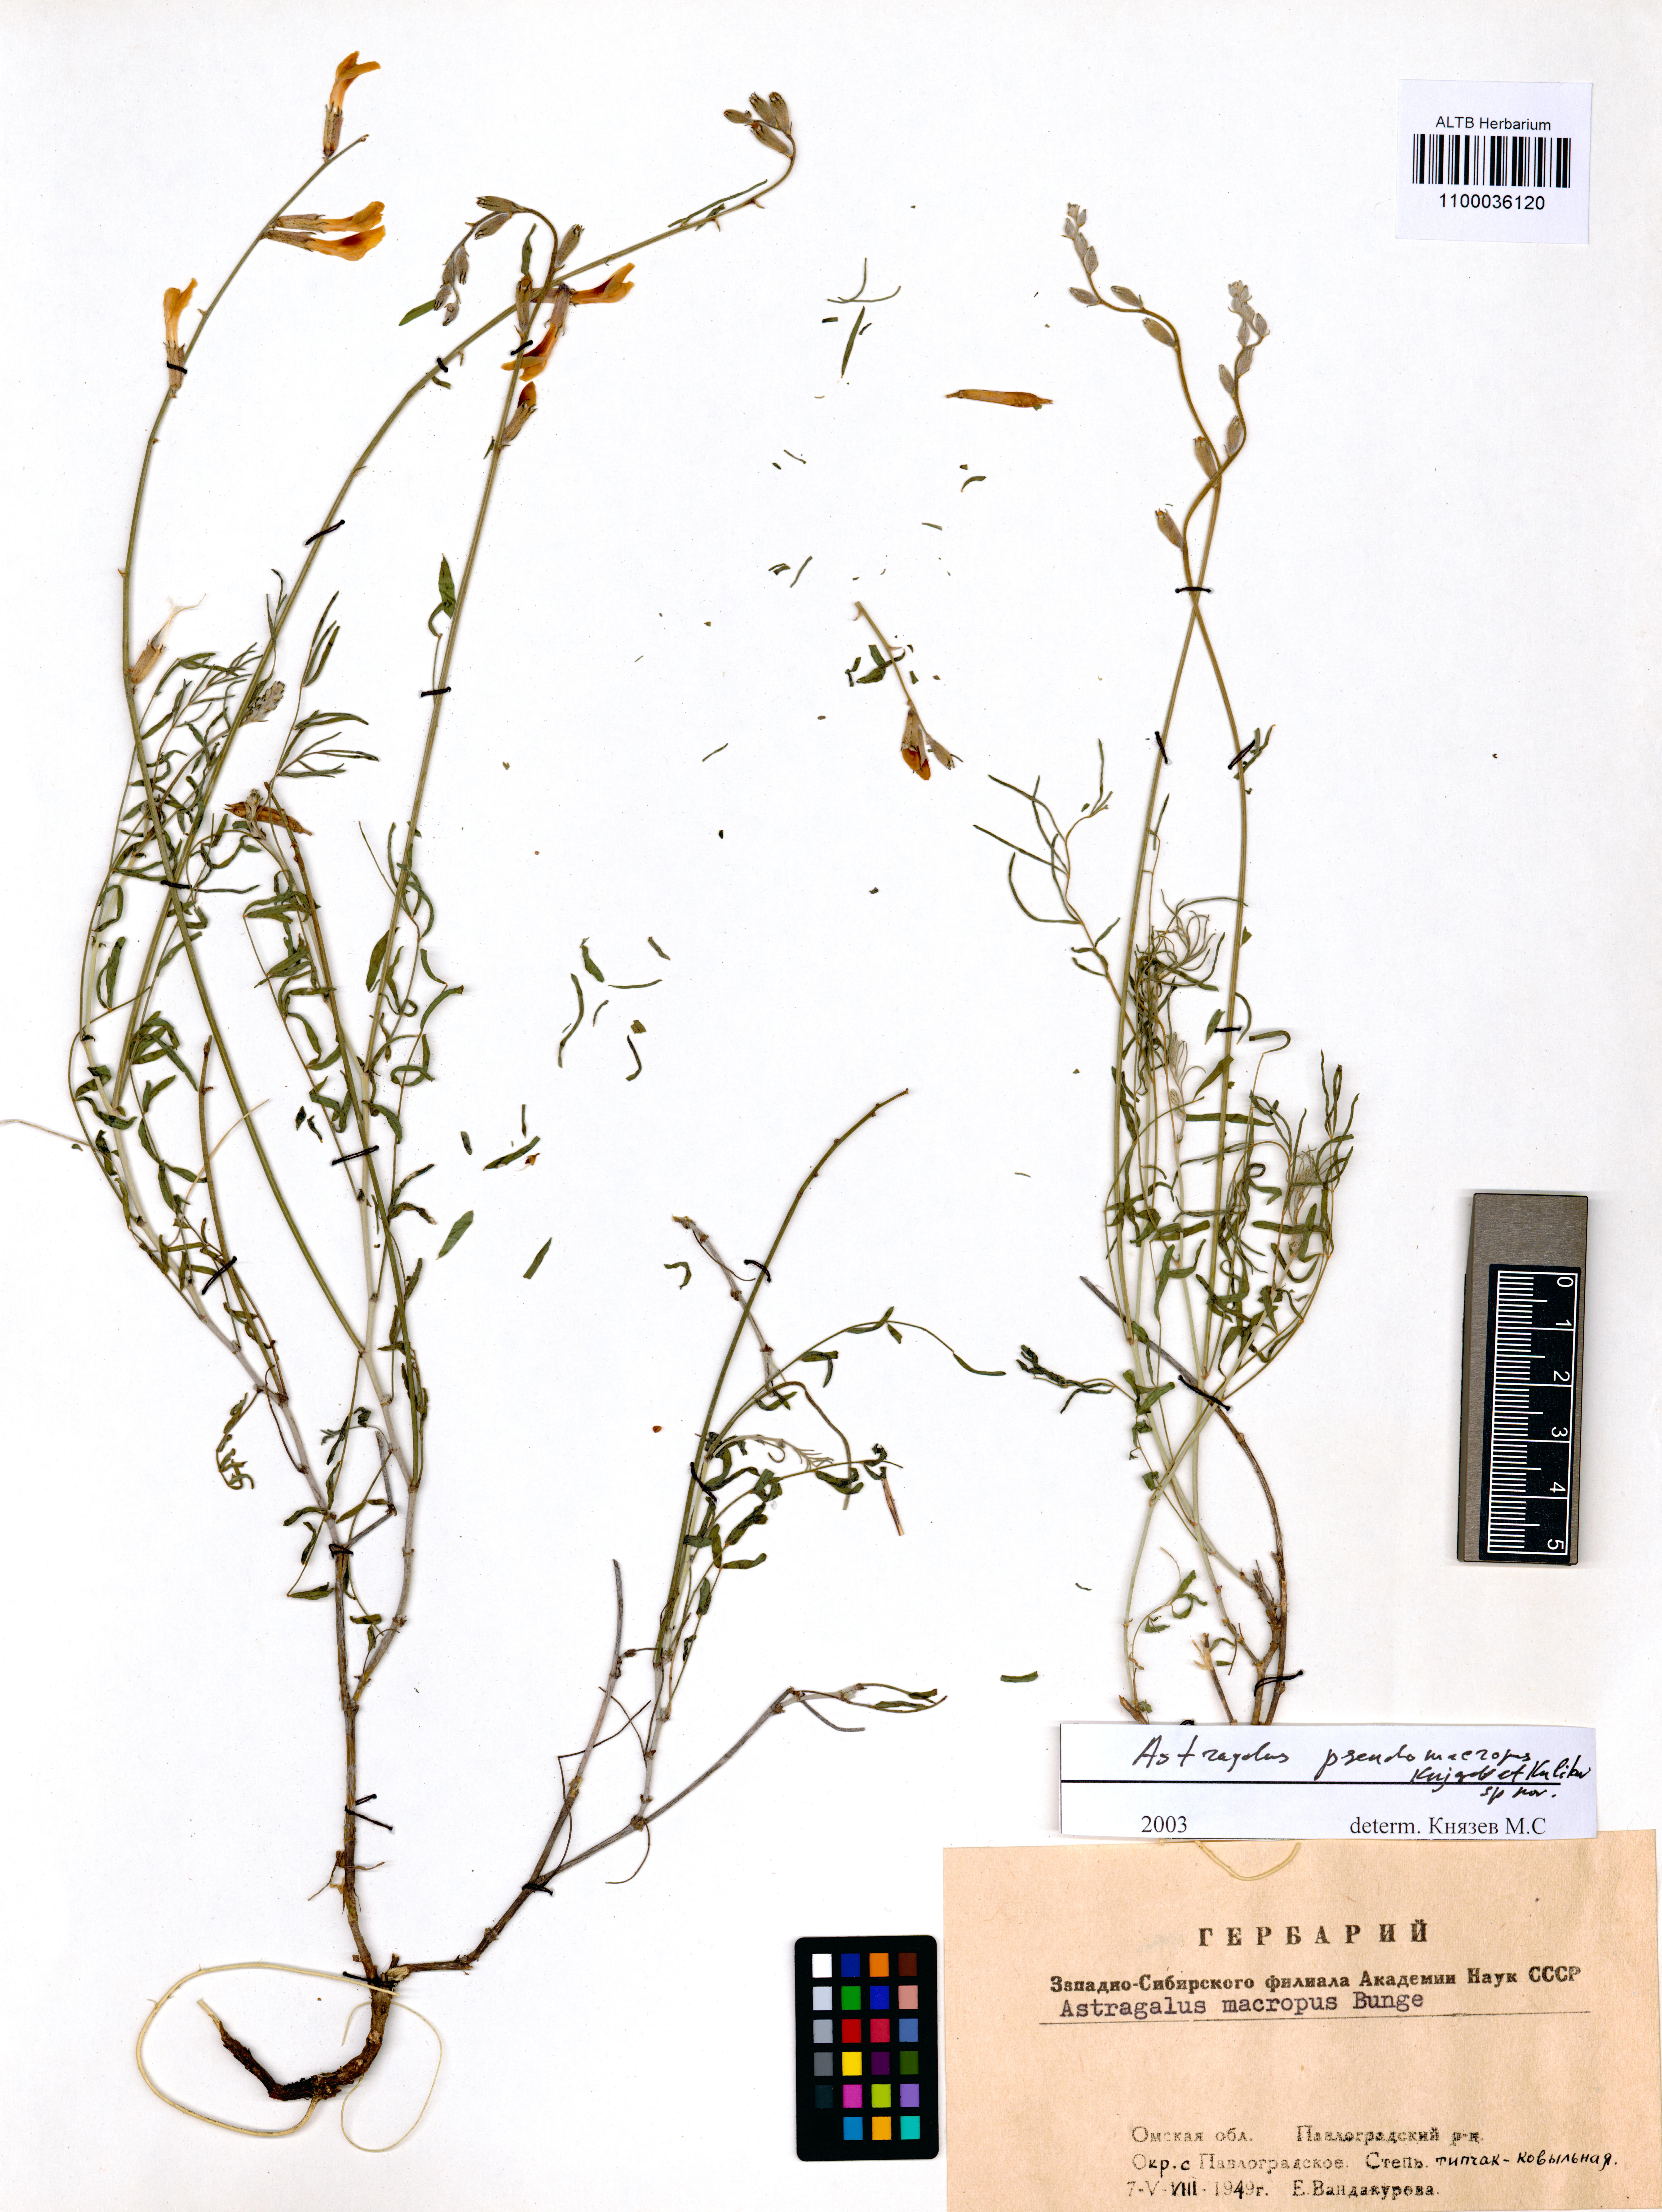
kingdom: Plantae
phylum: Tracheophyta
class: Magnoliopsida
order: Fabales
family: Fabaceae
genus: Astragalus
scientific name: Astragalus macropus
